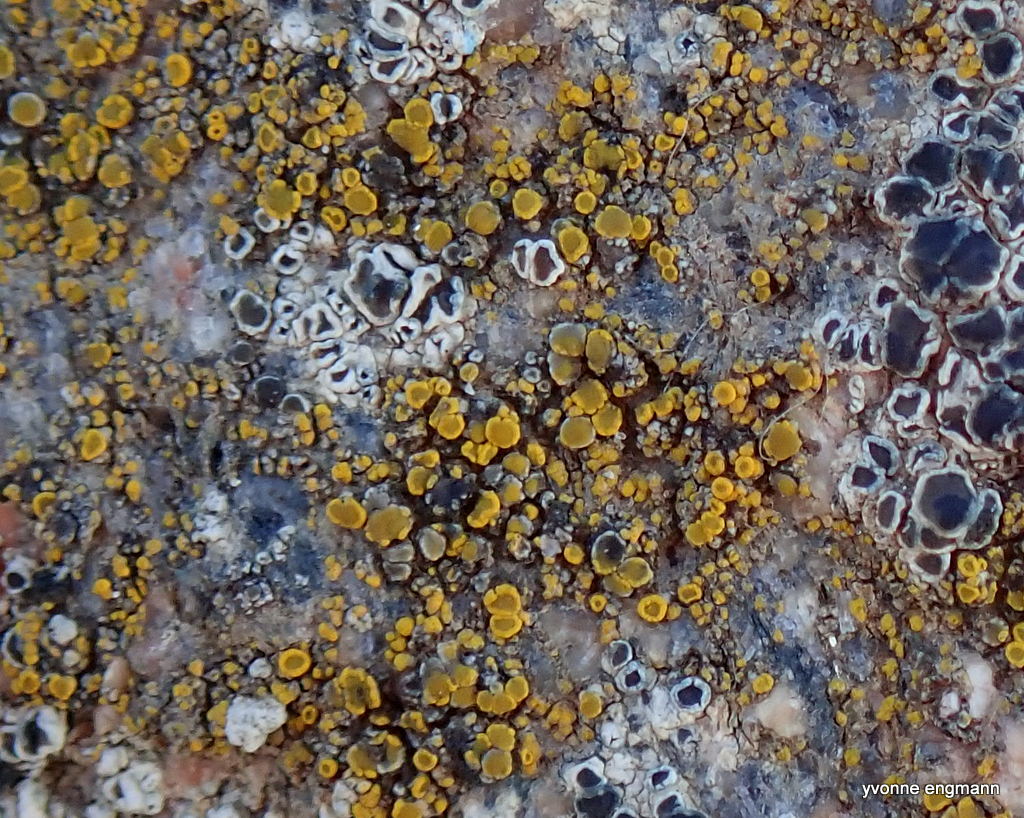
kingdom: Fungi
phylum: Ascomycota
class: Candelariomycetes
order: Candelariales
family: Candelariaceae
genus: Candelariella
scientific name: Candelariella vitellina
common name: almindelig æggeblommelav
